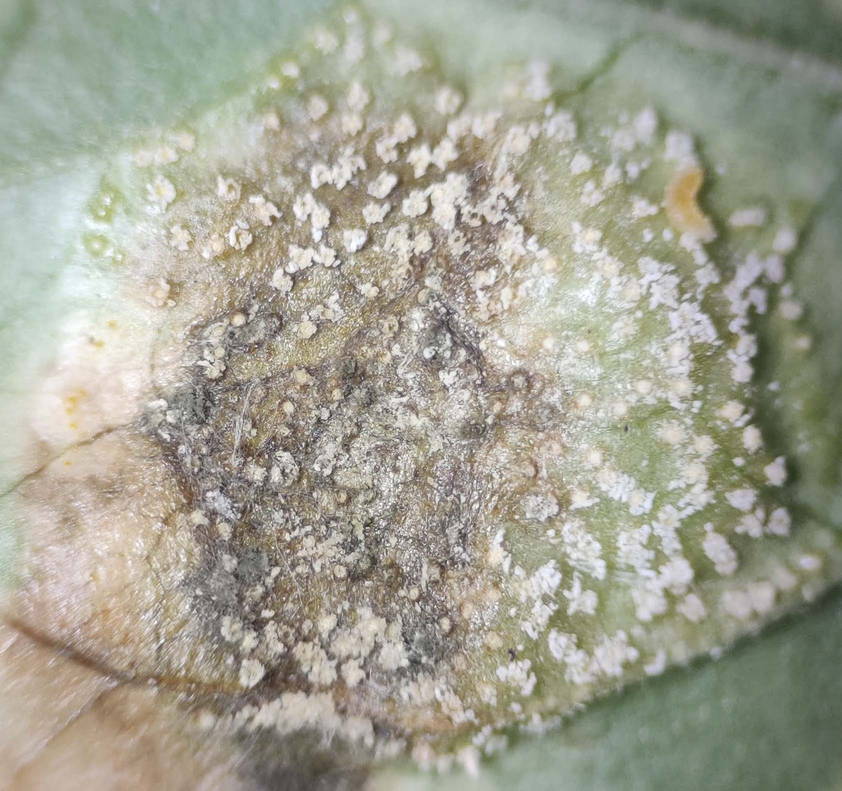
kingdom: Fungi
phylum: Basidiomycota
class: Pucciniomycetes
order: Pucciniales
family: Pucciniaceae
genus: Puccinia
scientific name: Puccinia circaeae-caricis
